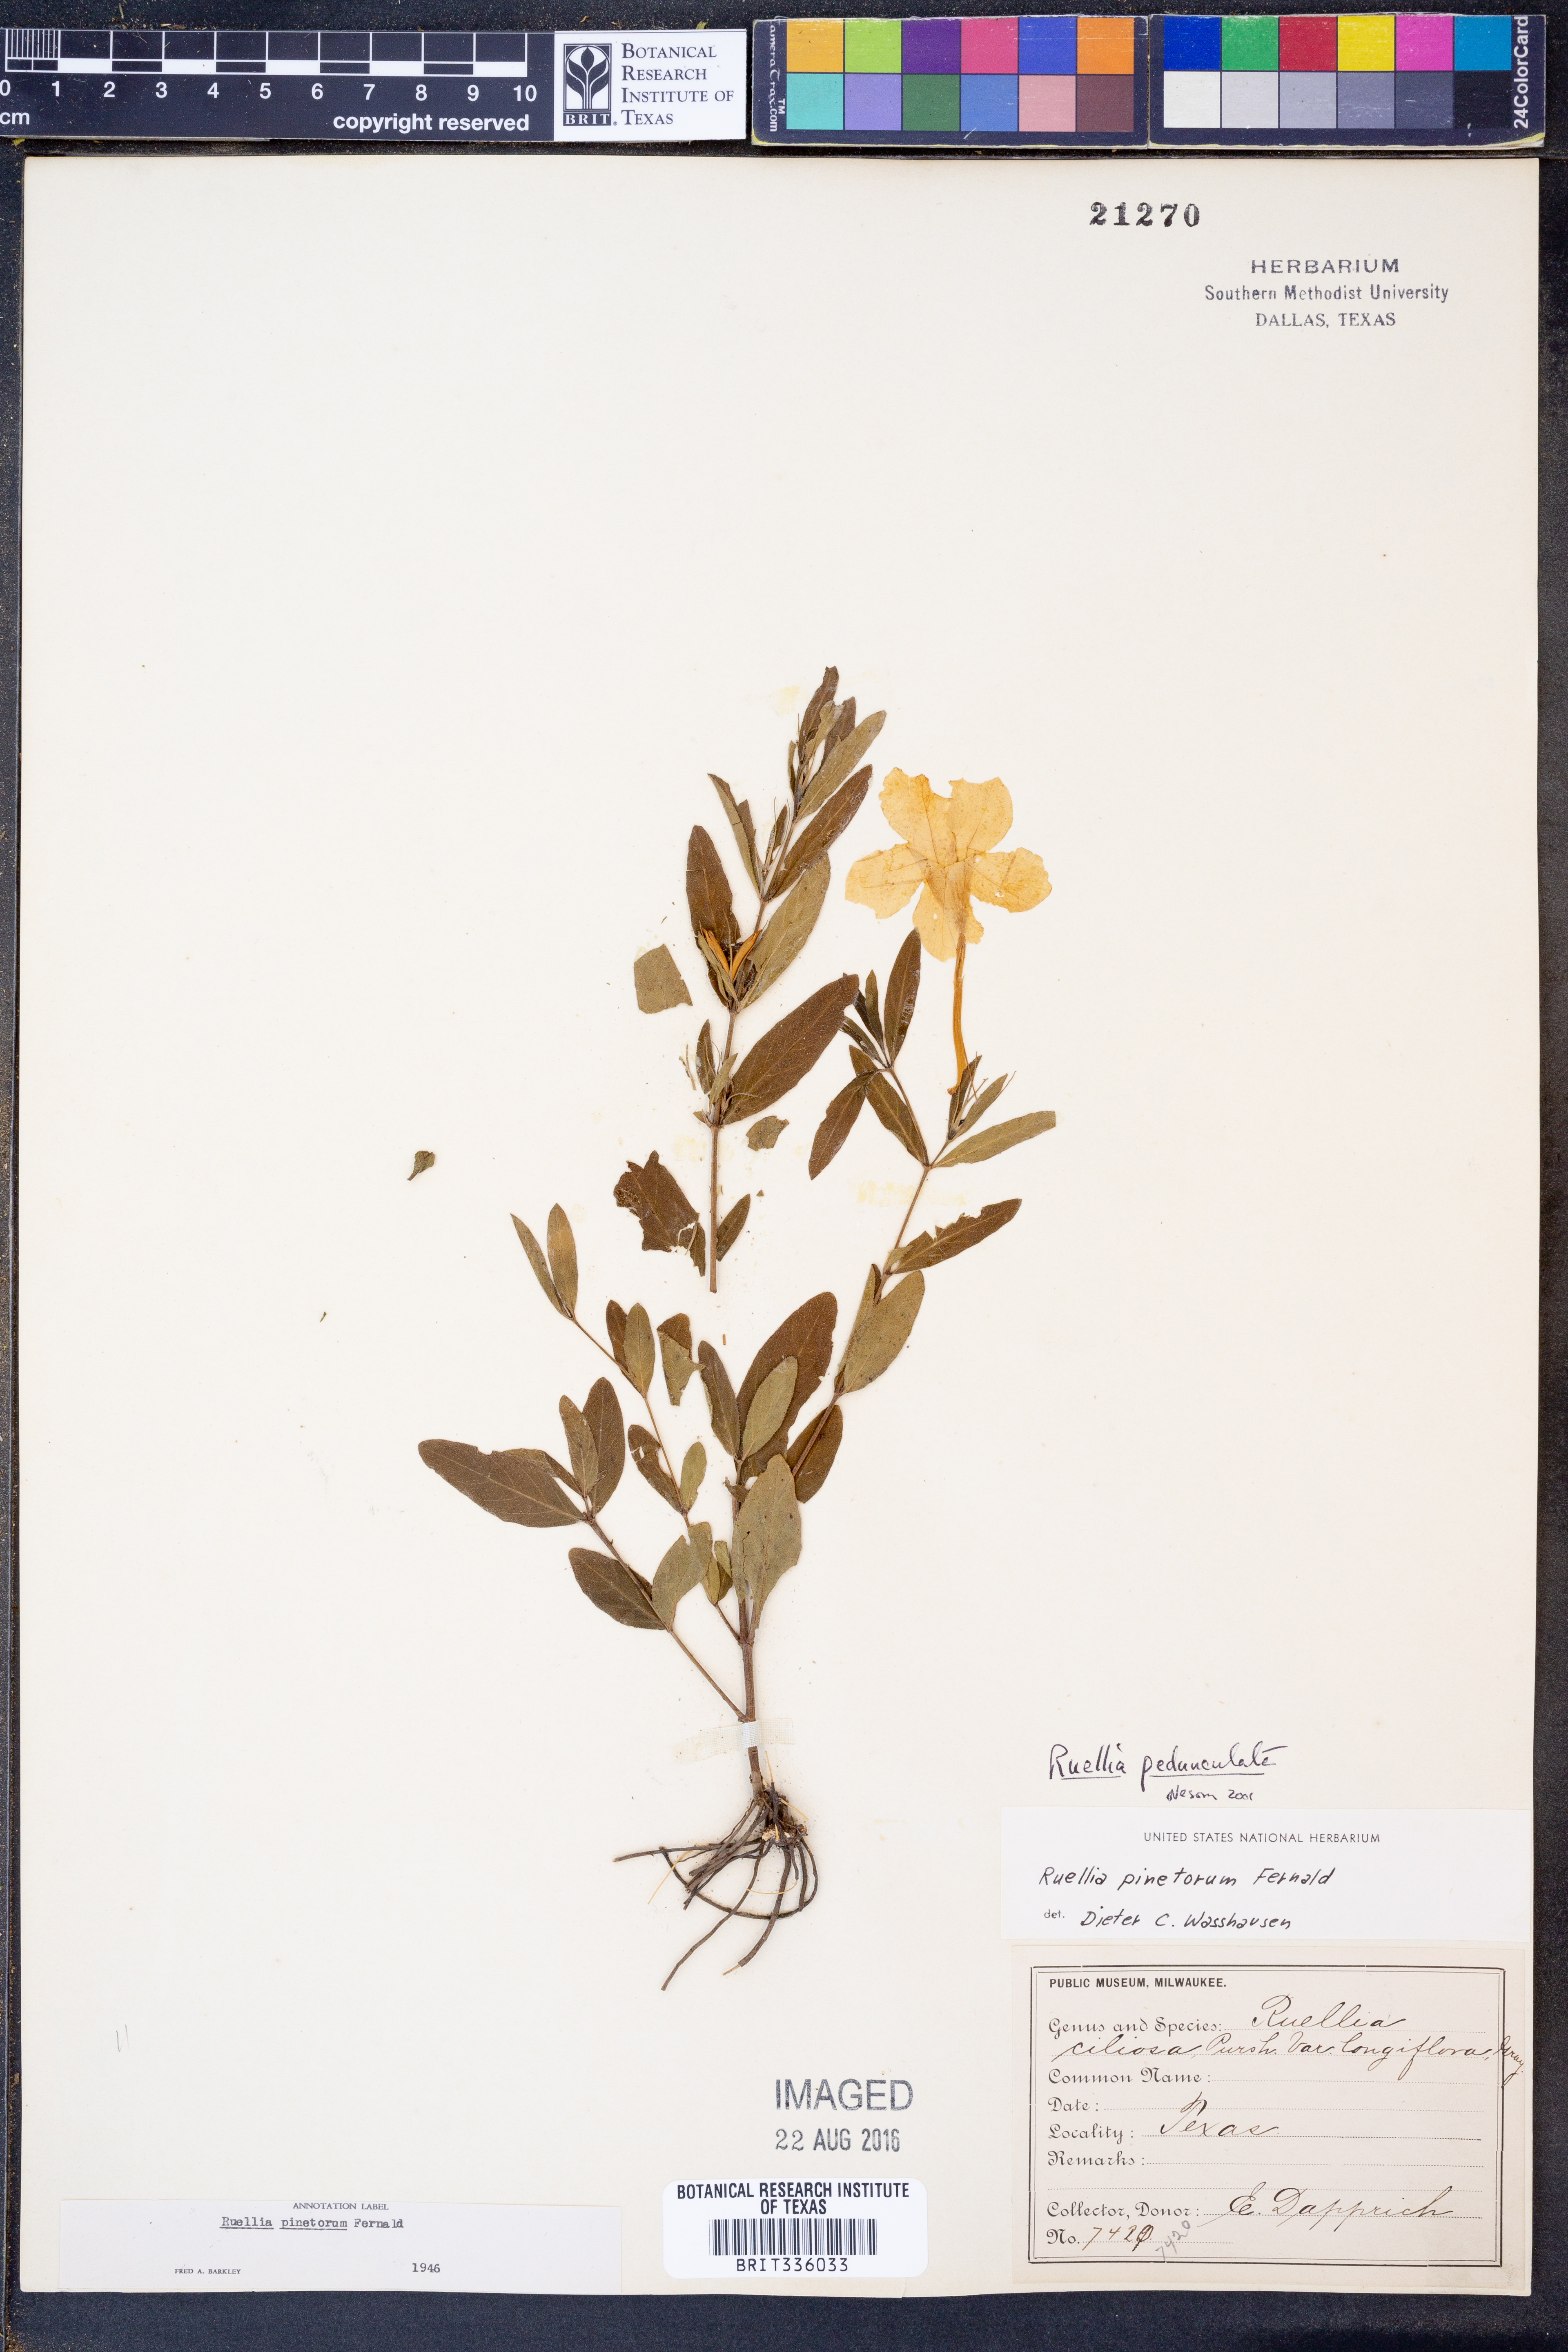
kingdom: Plantae
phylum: Tracheophyta
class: Magnoliopsida
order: Lamiales
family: Acanthaceae
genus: Ruellia
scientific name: Ruellia pedunculata
